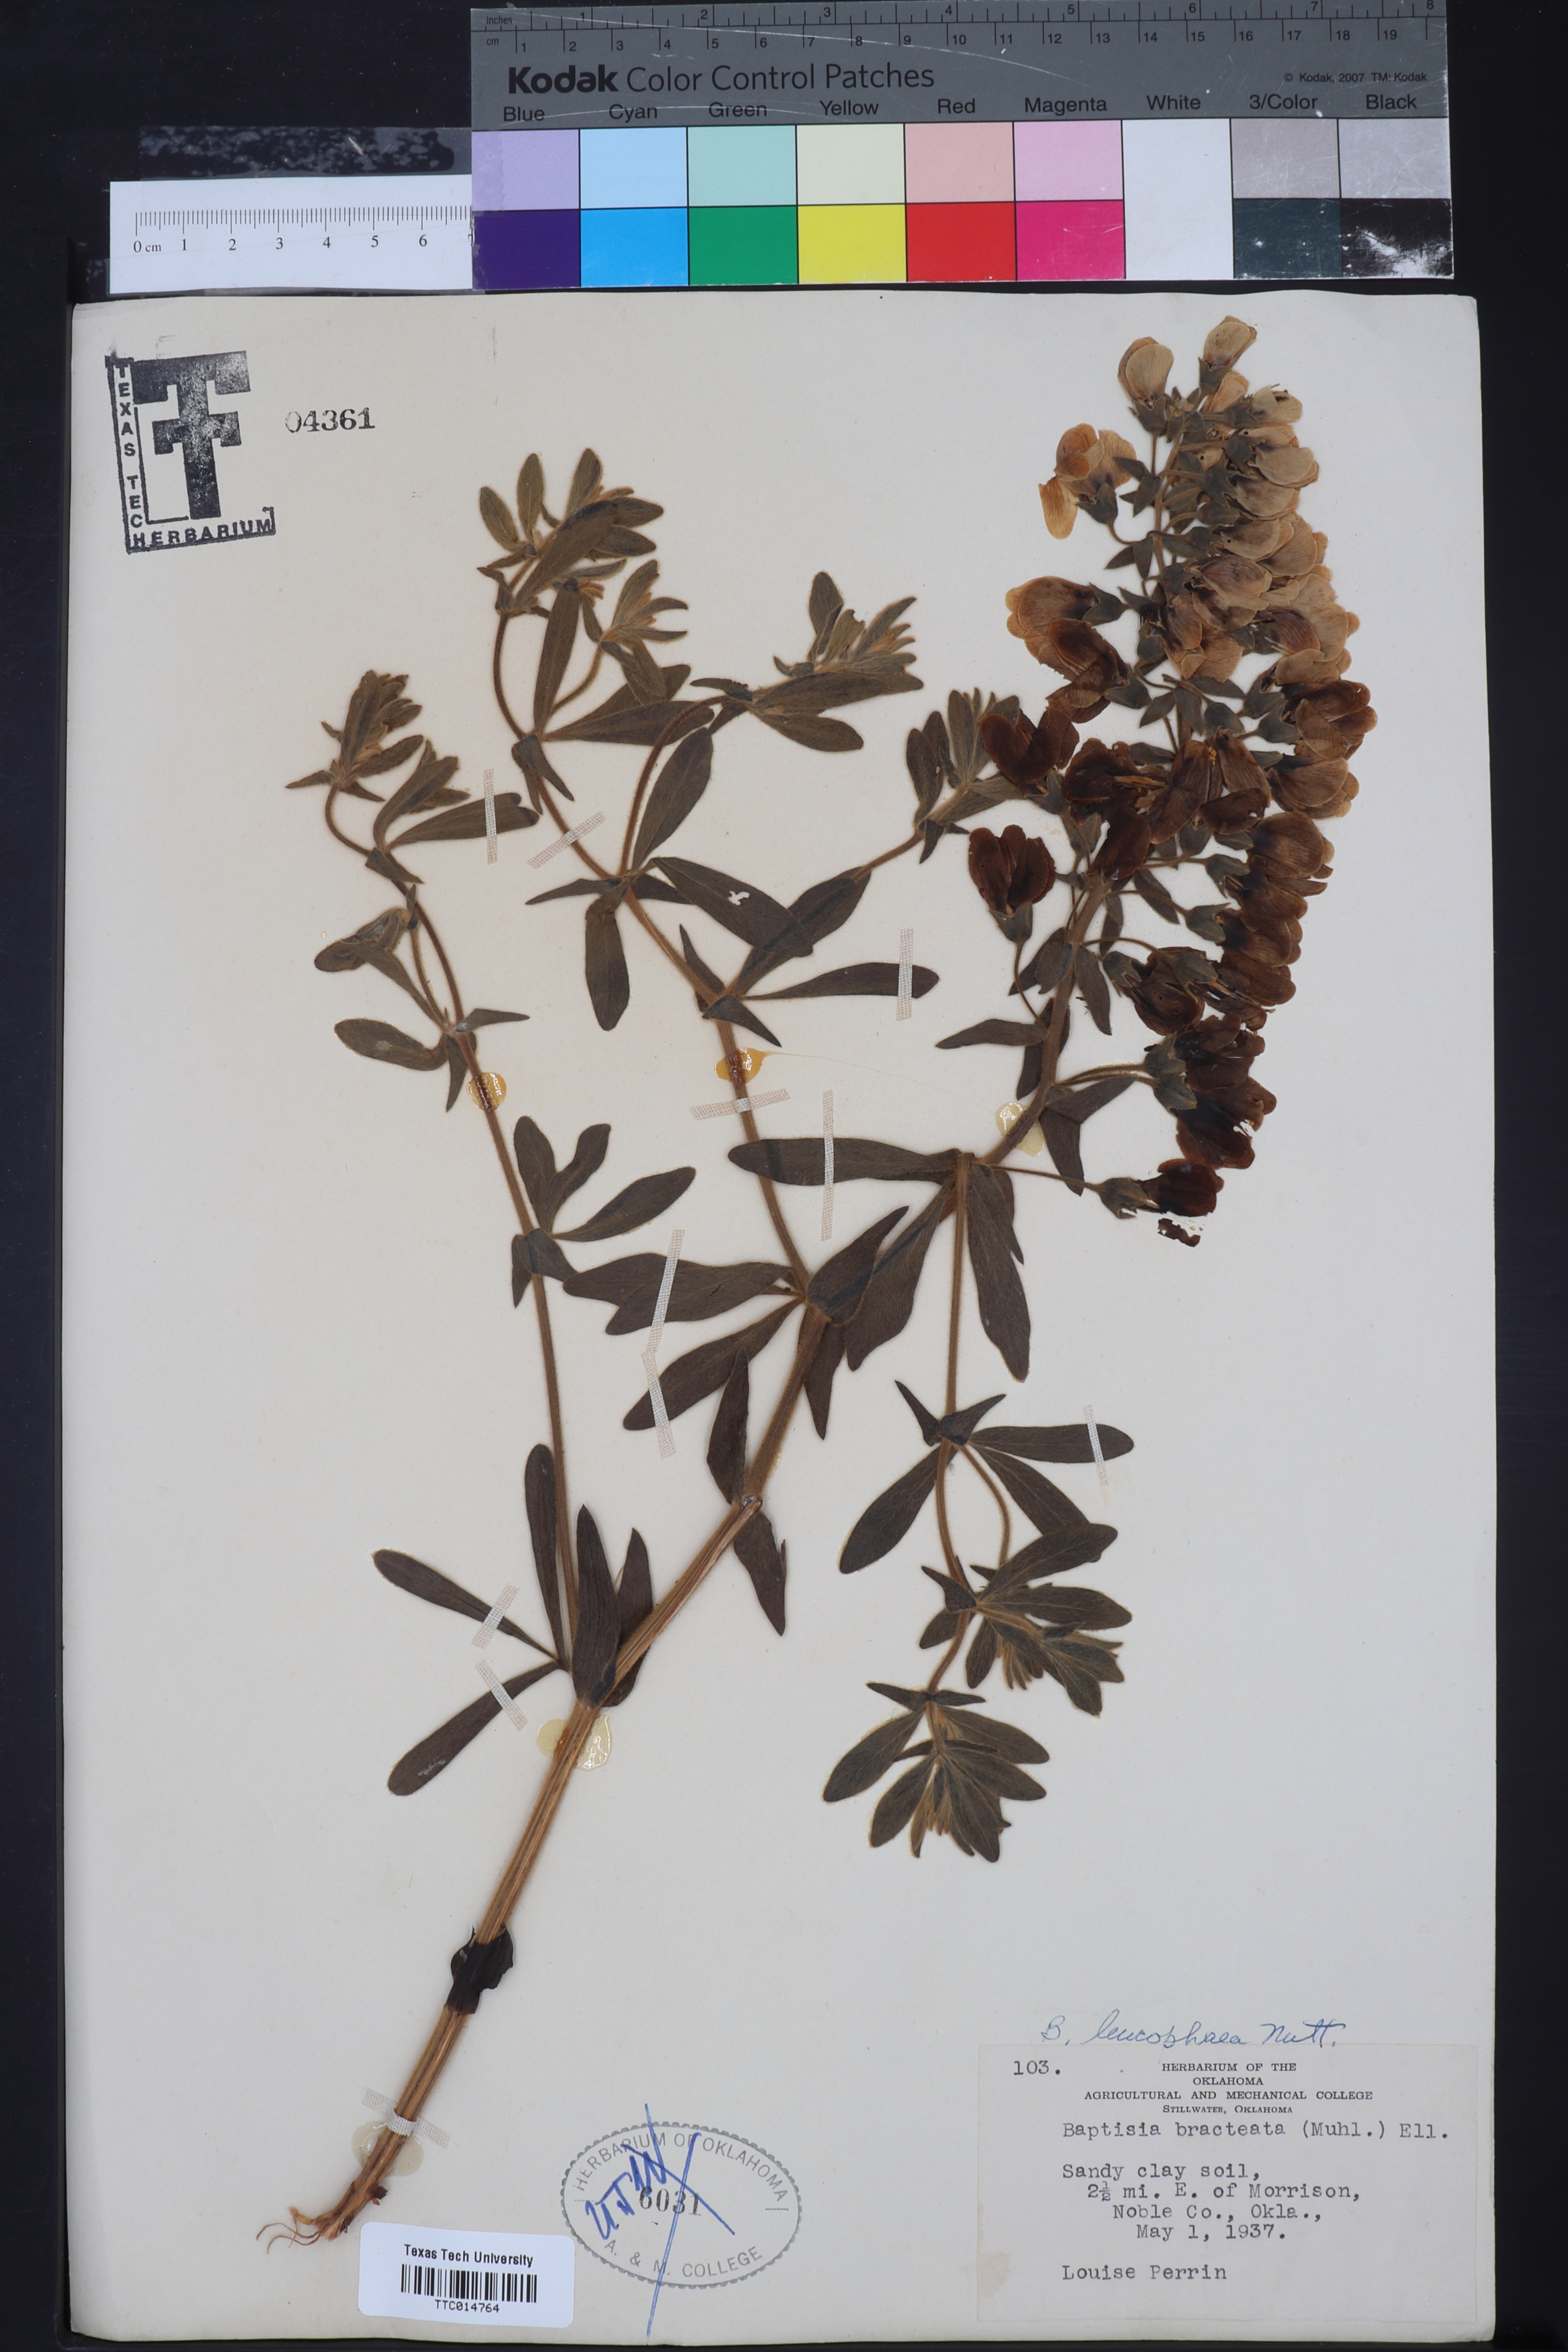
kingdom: Plantae
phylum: Tracheophyta
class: Magnoliopsida
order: Fabales
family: Fabaceae
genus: Baptisia
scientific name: Baptisia bracteata
